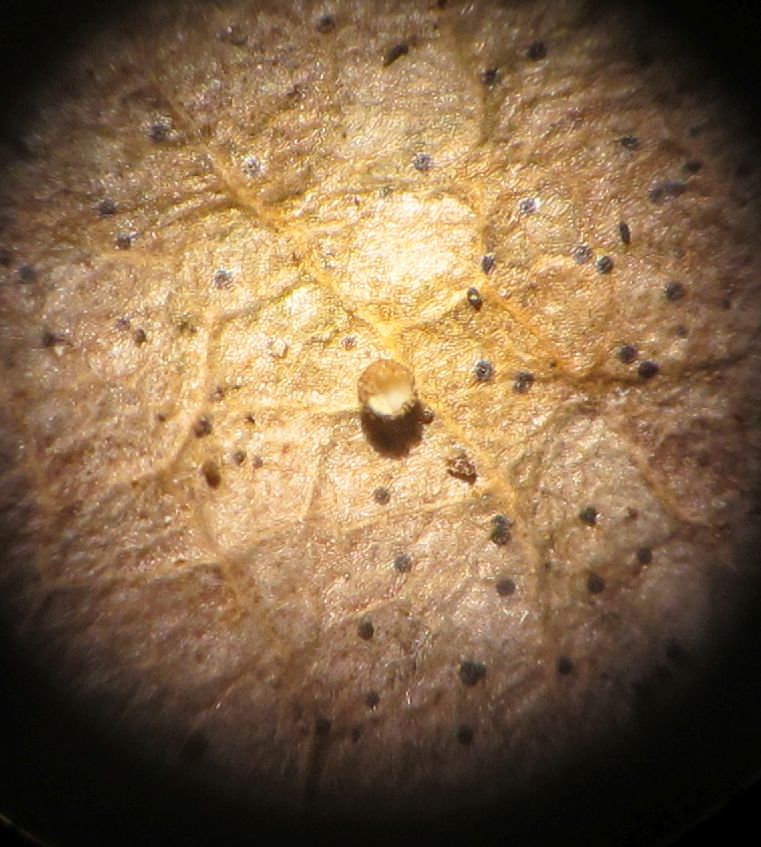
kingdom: Fungi
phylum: Ascomycota
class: Leotiomycetes
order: Helotiales
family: Lachnaceae
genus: Brunnipila
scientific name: Brunnipila brunneola
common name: læderbrun frynseskive
